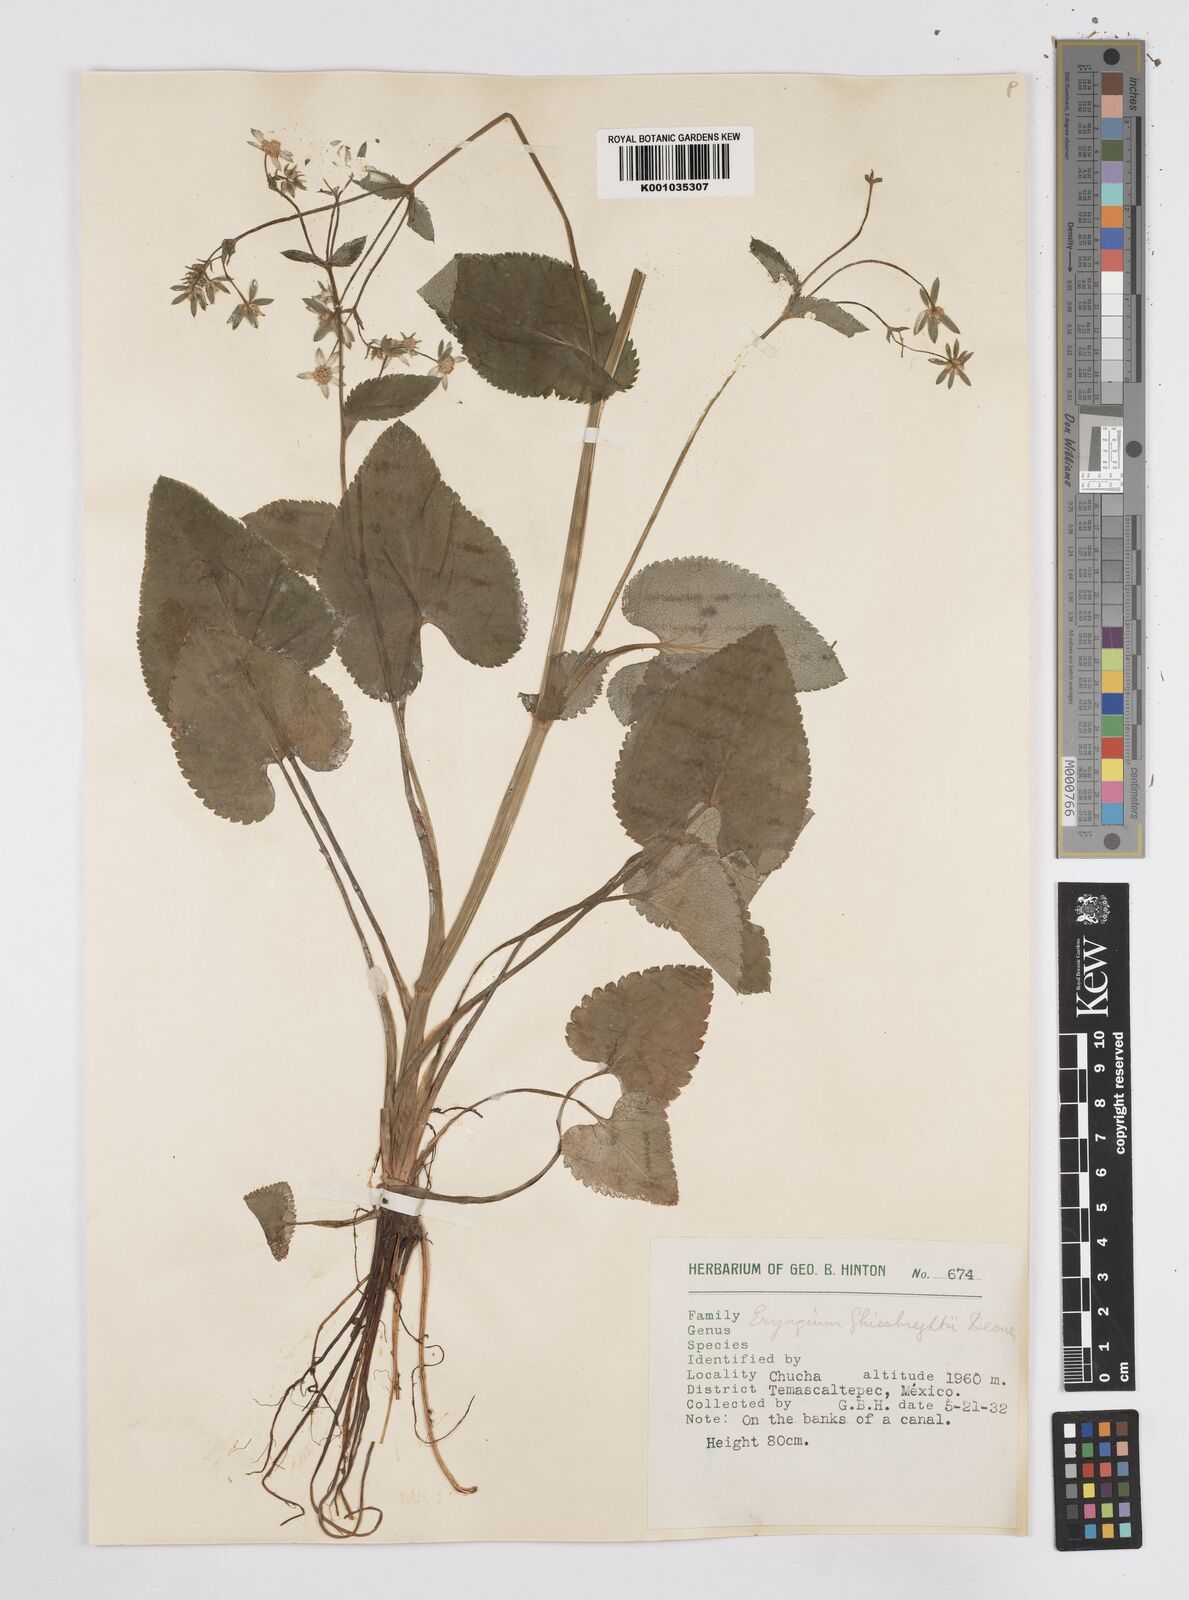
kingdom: Plantae
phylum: Tracheophyta
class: Magnoliopsida
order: Apiales
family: Apiaceae
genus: Eryngium
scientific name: Eryngium ghiesbreghtii
